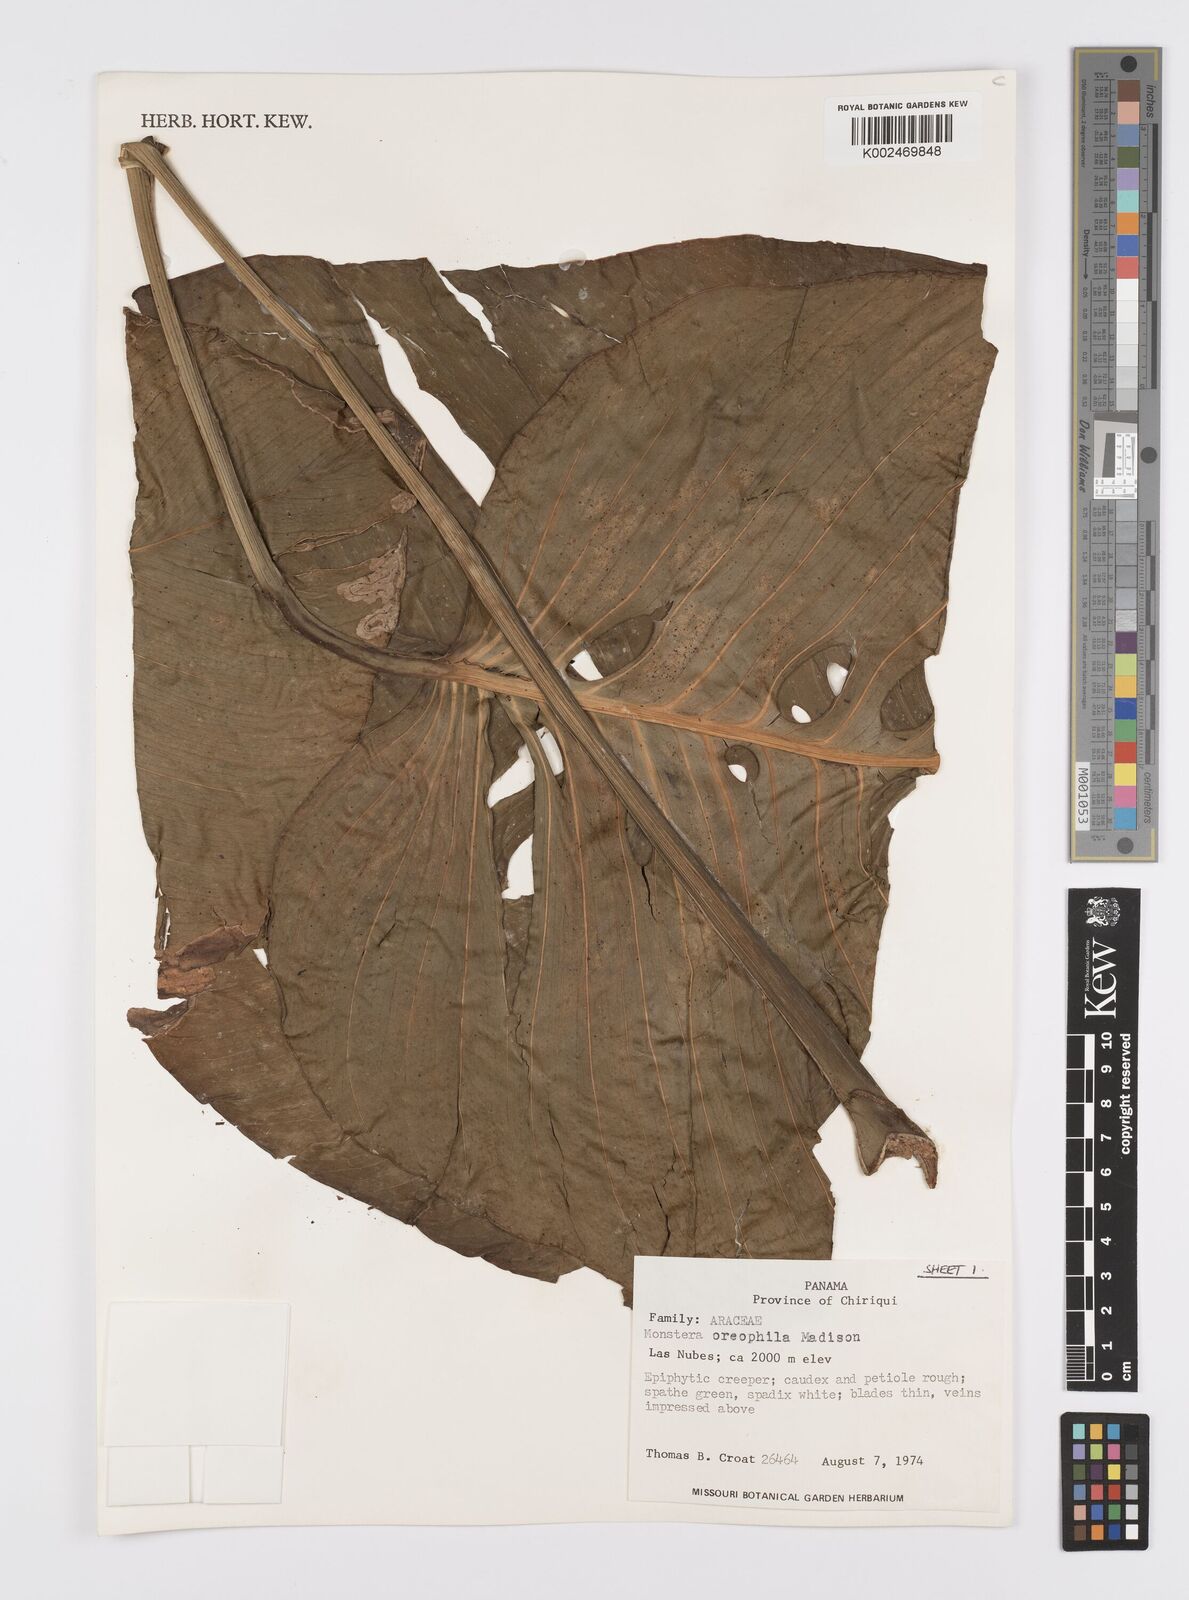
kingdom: Plantae
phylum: Tracheophyta
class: Liliopsida
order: Alismatales
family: Araceae
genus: Monstera
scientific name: Monstera oreophila
